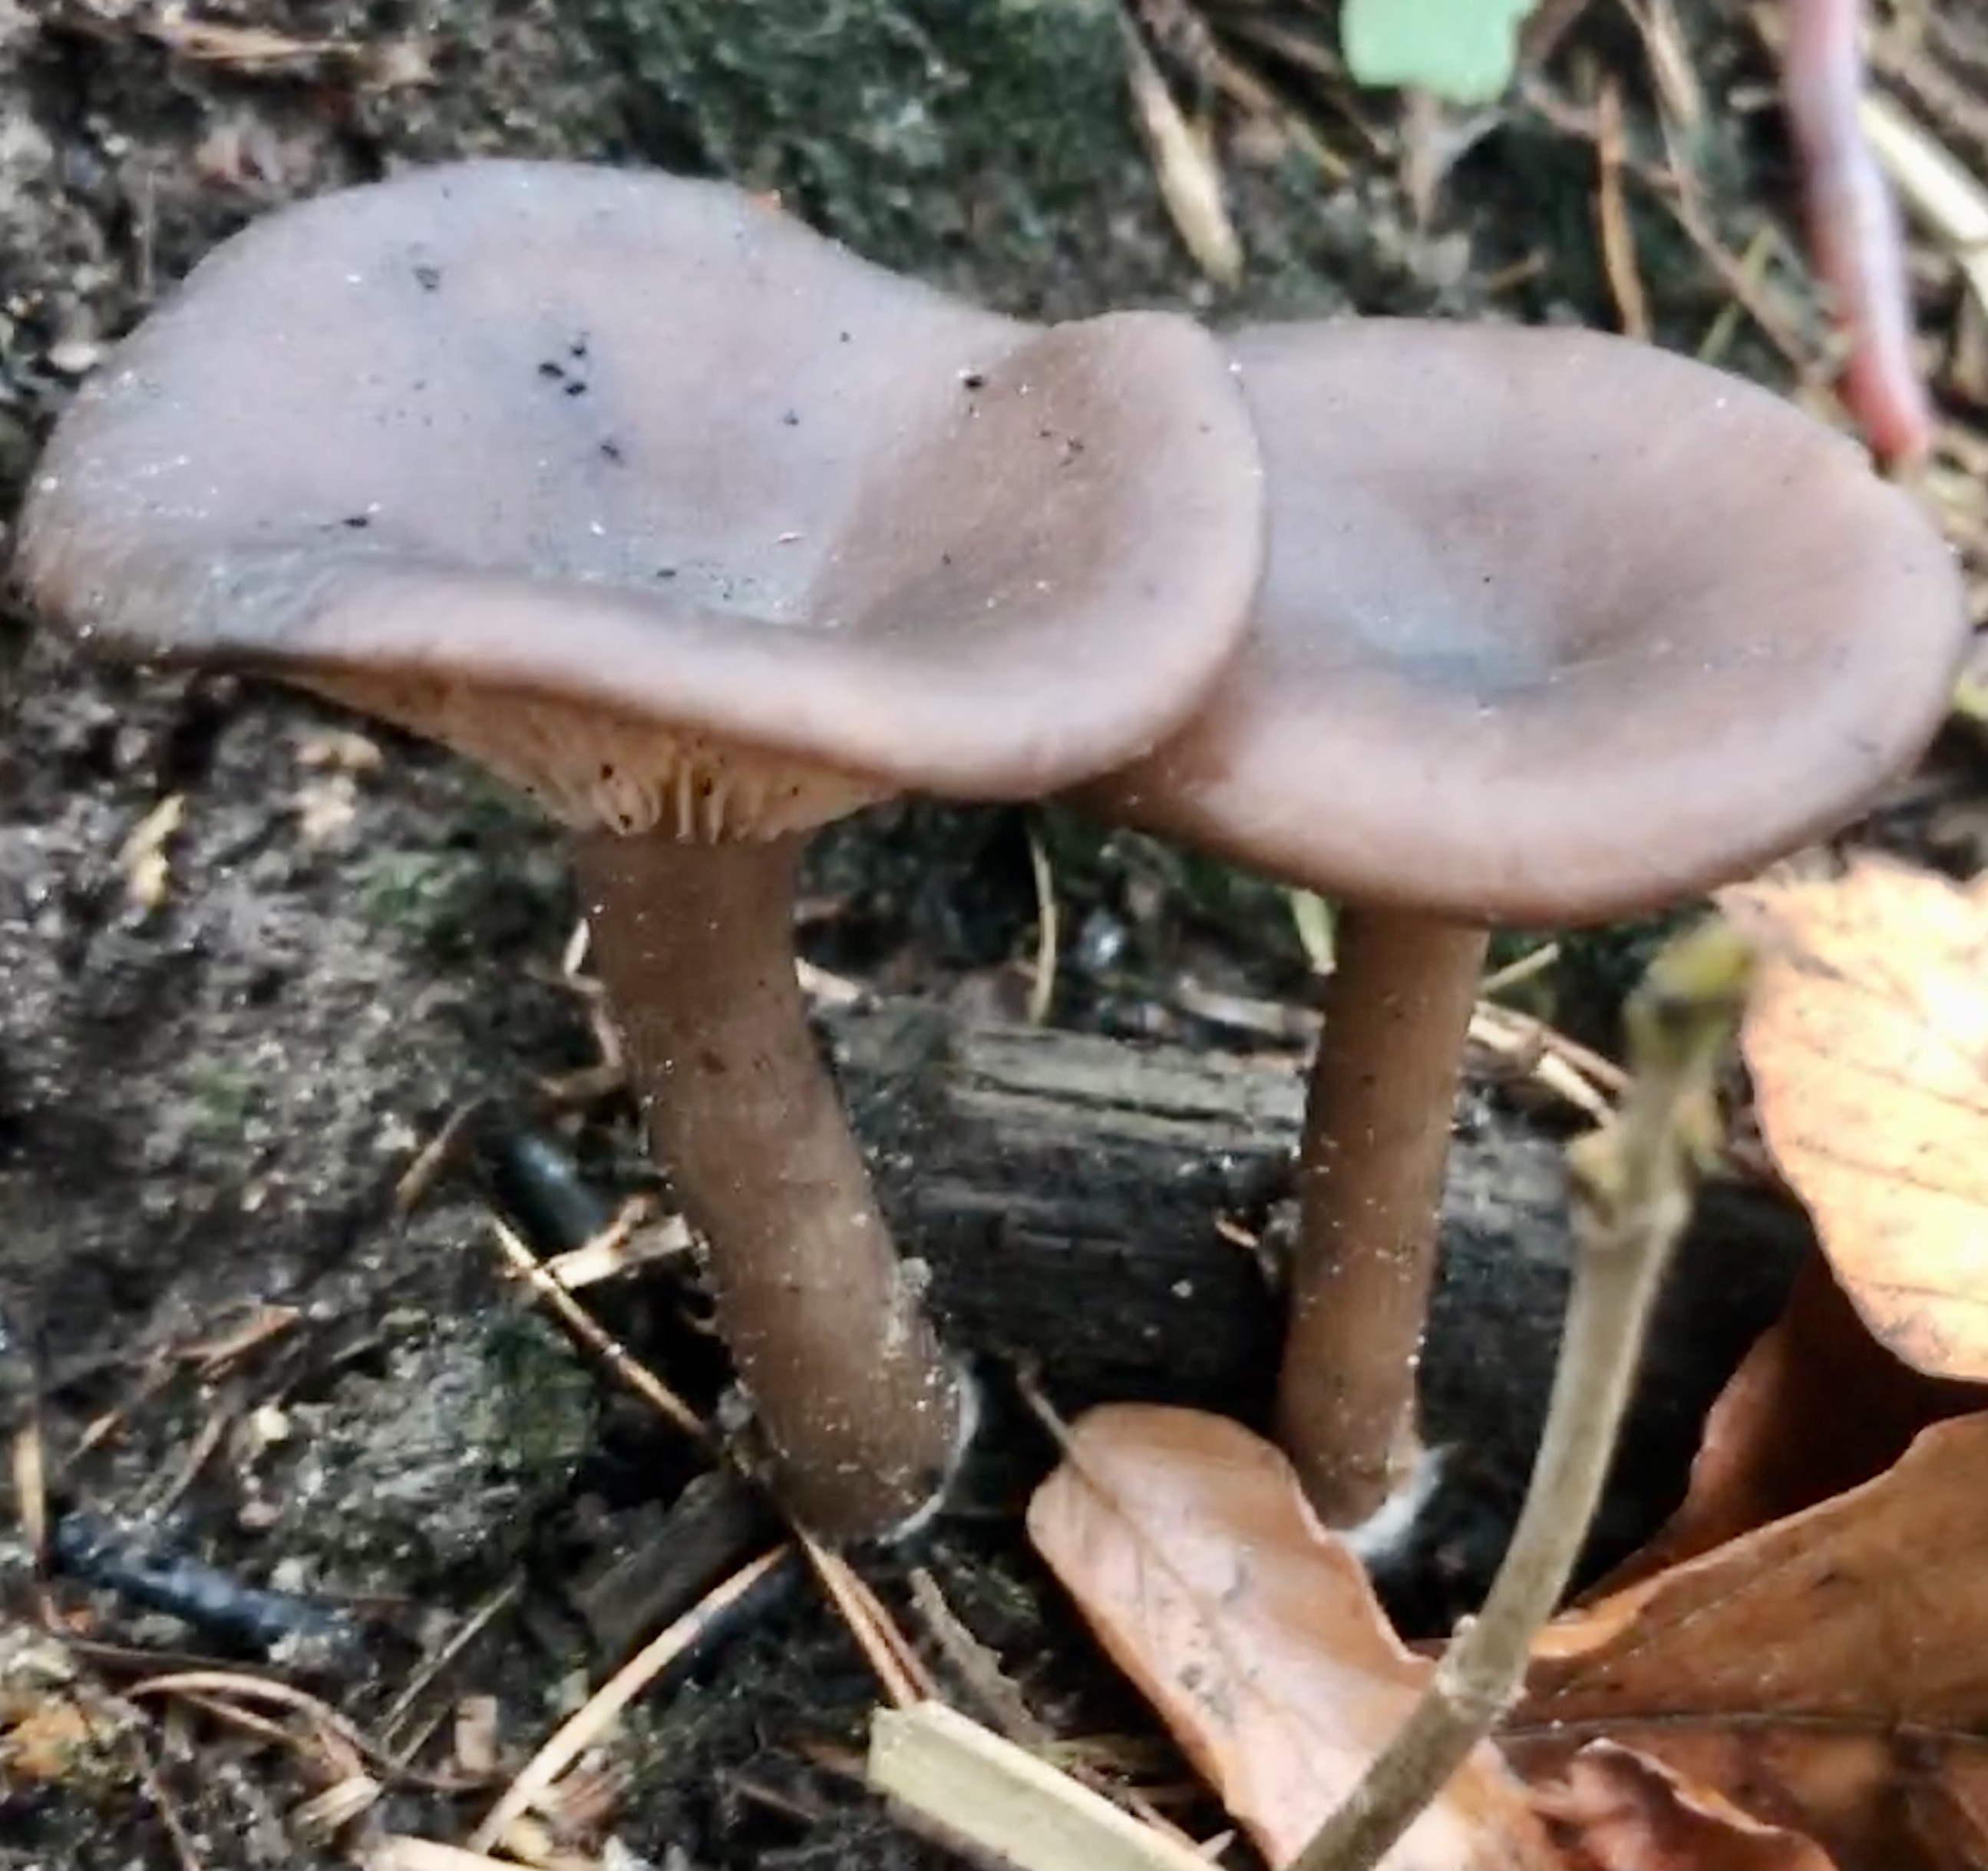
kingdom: Fungi
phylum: Basidiomycota
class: Agaricomycetes
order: Agaricales
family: Pseudoclitocybaceae
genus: Pseudoclitocybe
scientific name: Pseudoclitocybe cyathiformis
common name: almindelig bægertragthat
